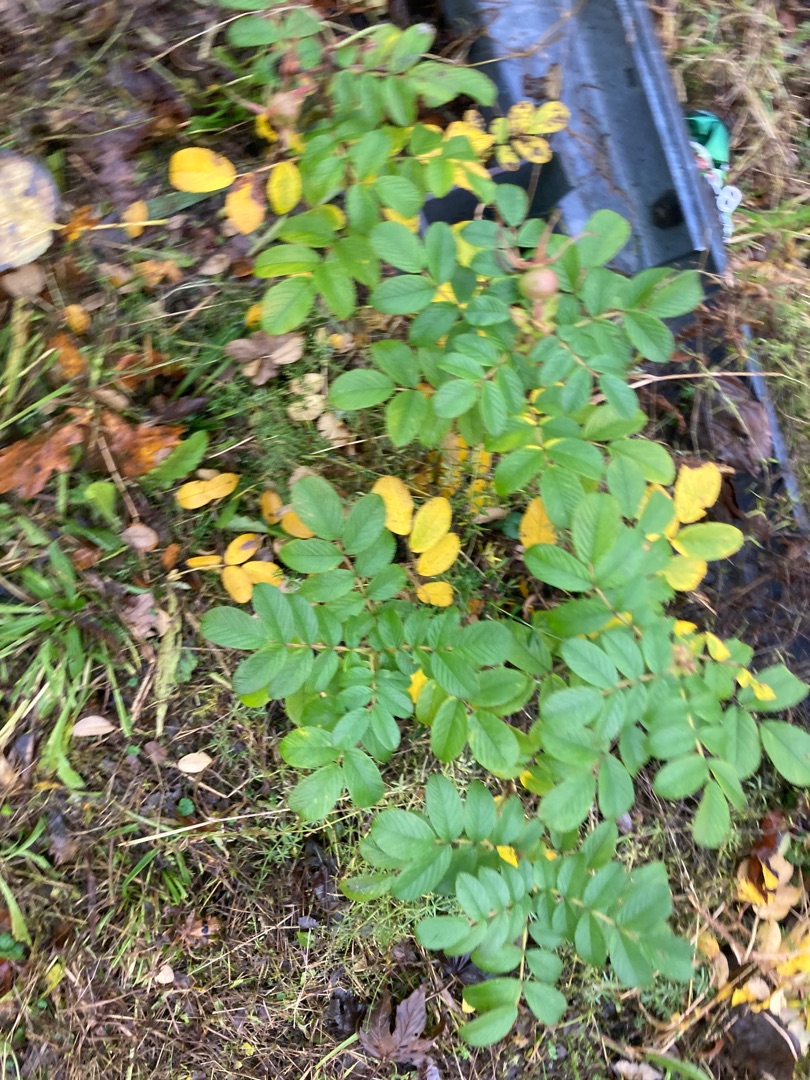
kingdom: Plantae
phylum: Tracheophyta
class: Magnoliopsida
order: Rosales
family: Rosaceae
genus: Rosa
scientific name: Rosa rugosa
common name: Rynket rose
